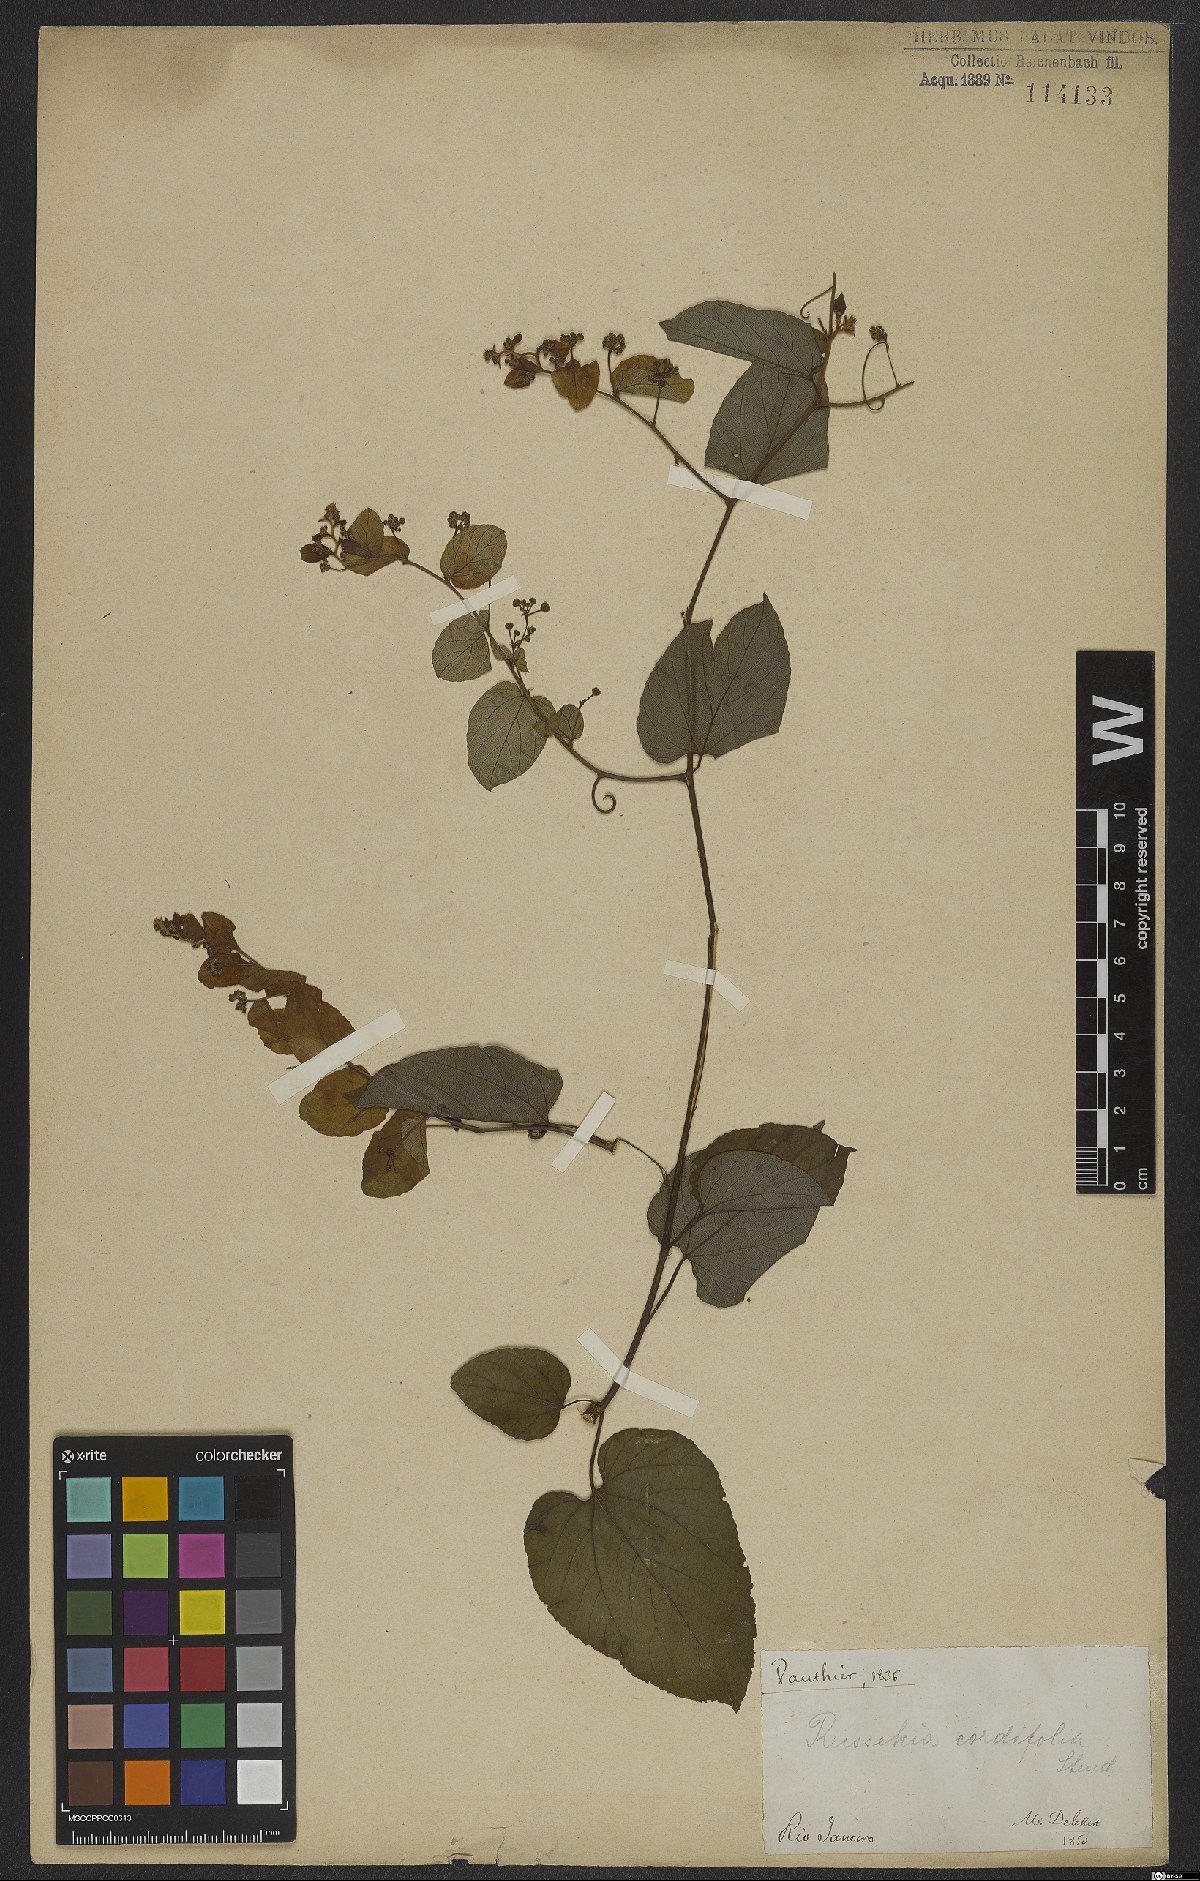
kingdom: Plantae
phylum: Tracheophyta
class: Magnoliopsida
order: Rosales
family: Rhamnaceae
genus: Reissekia
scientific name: Reissekia smilacina
